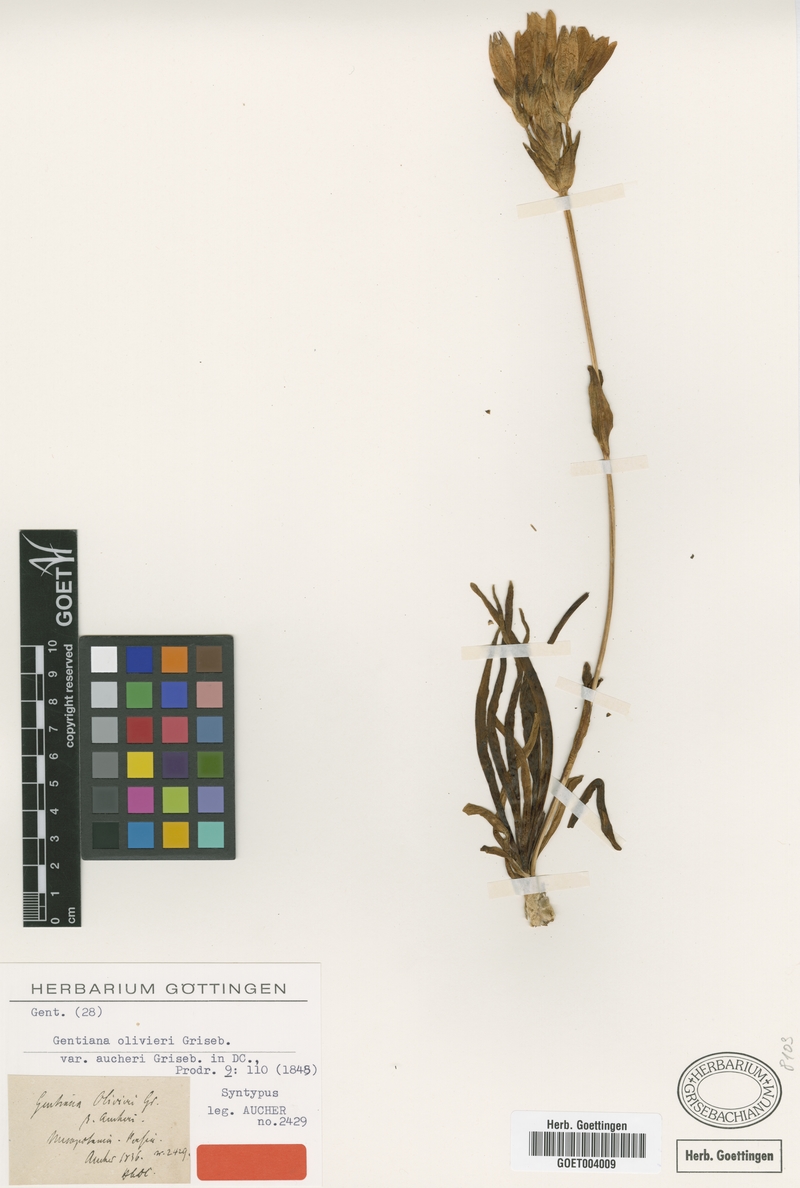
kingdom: Plantae
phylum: Tracheophyta
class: Magnoliopsida
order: Gentianales
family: Gentianaceae
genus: Gentiana
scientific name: Gentiana olivieri
